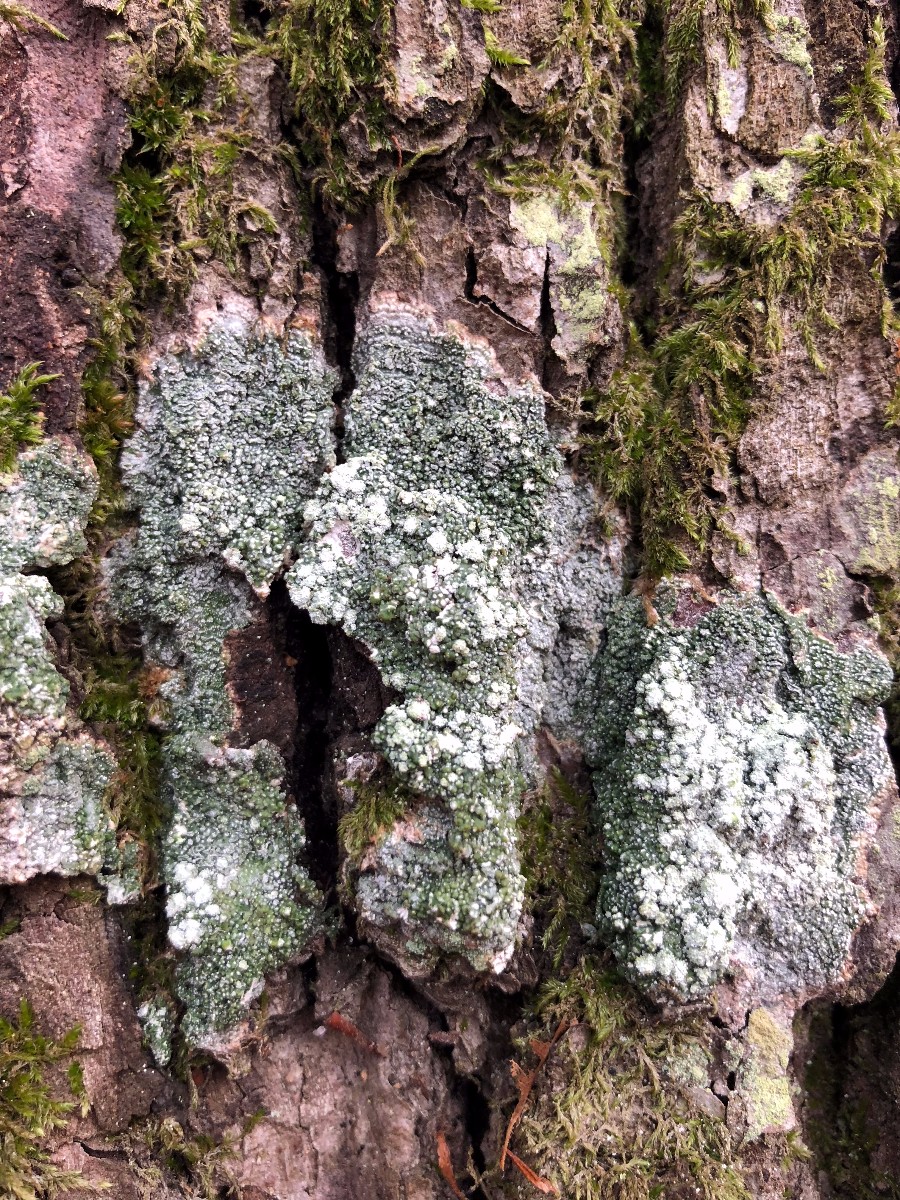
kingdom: Fungi
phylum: Ascomycota
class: Lecanoromycetes
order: Pertusariales
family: Pertusariaceae
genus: Lepra
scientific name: Lepra amara
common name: bitter prikvortelav
